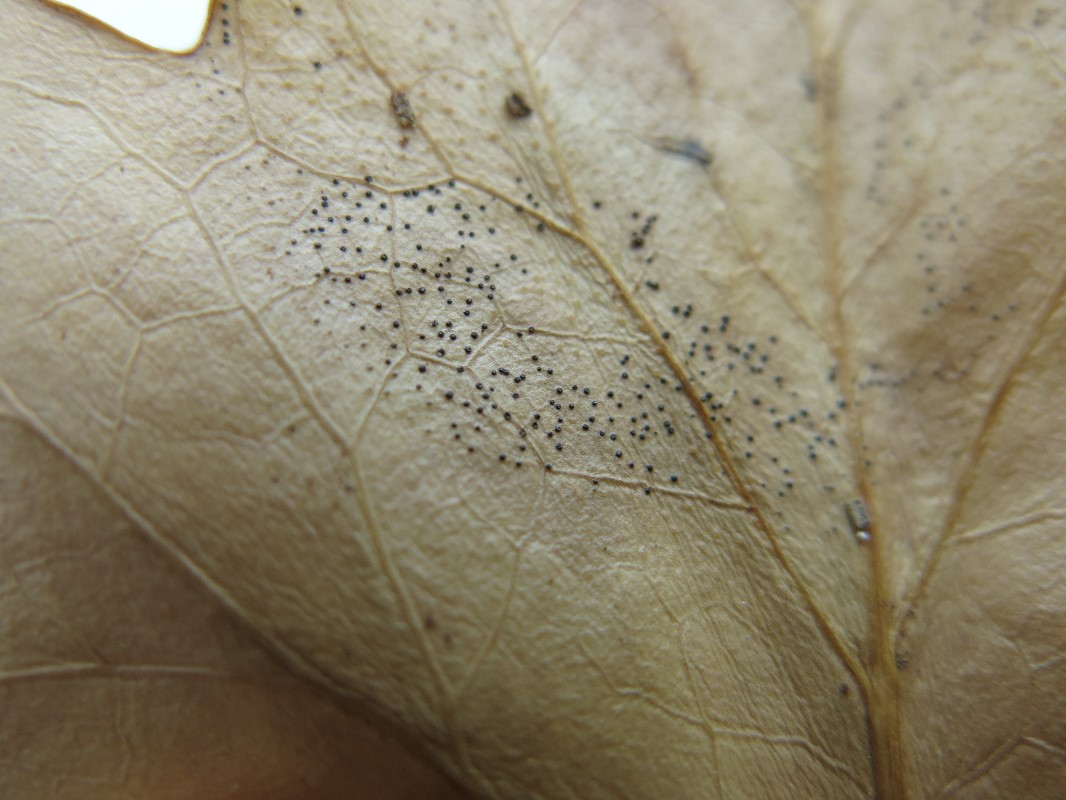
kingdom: Fungi
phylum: Ascomycota
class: Leotiomycetes
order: Helotiales
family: Cenangiaceae
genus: Trochila
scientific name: Trochila craterium
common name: vedbend-lågskive
